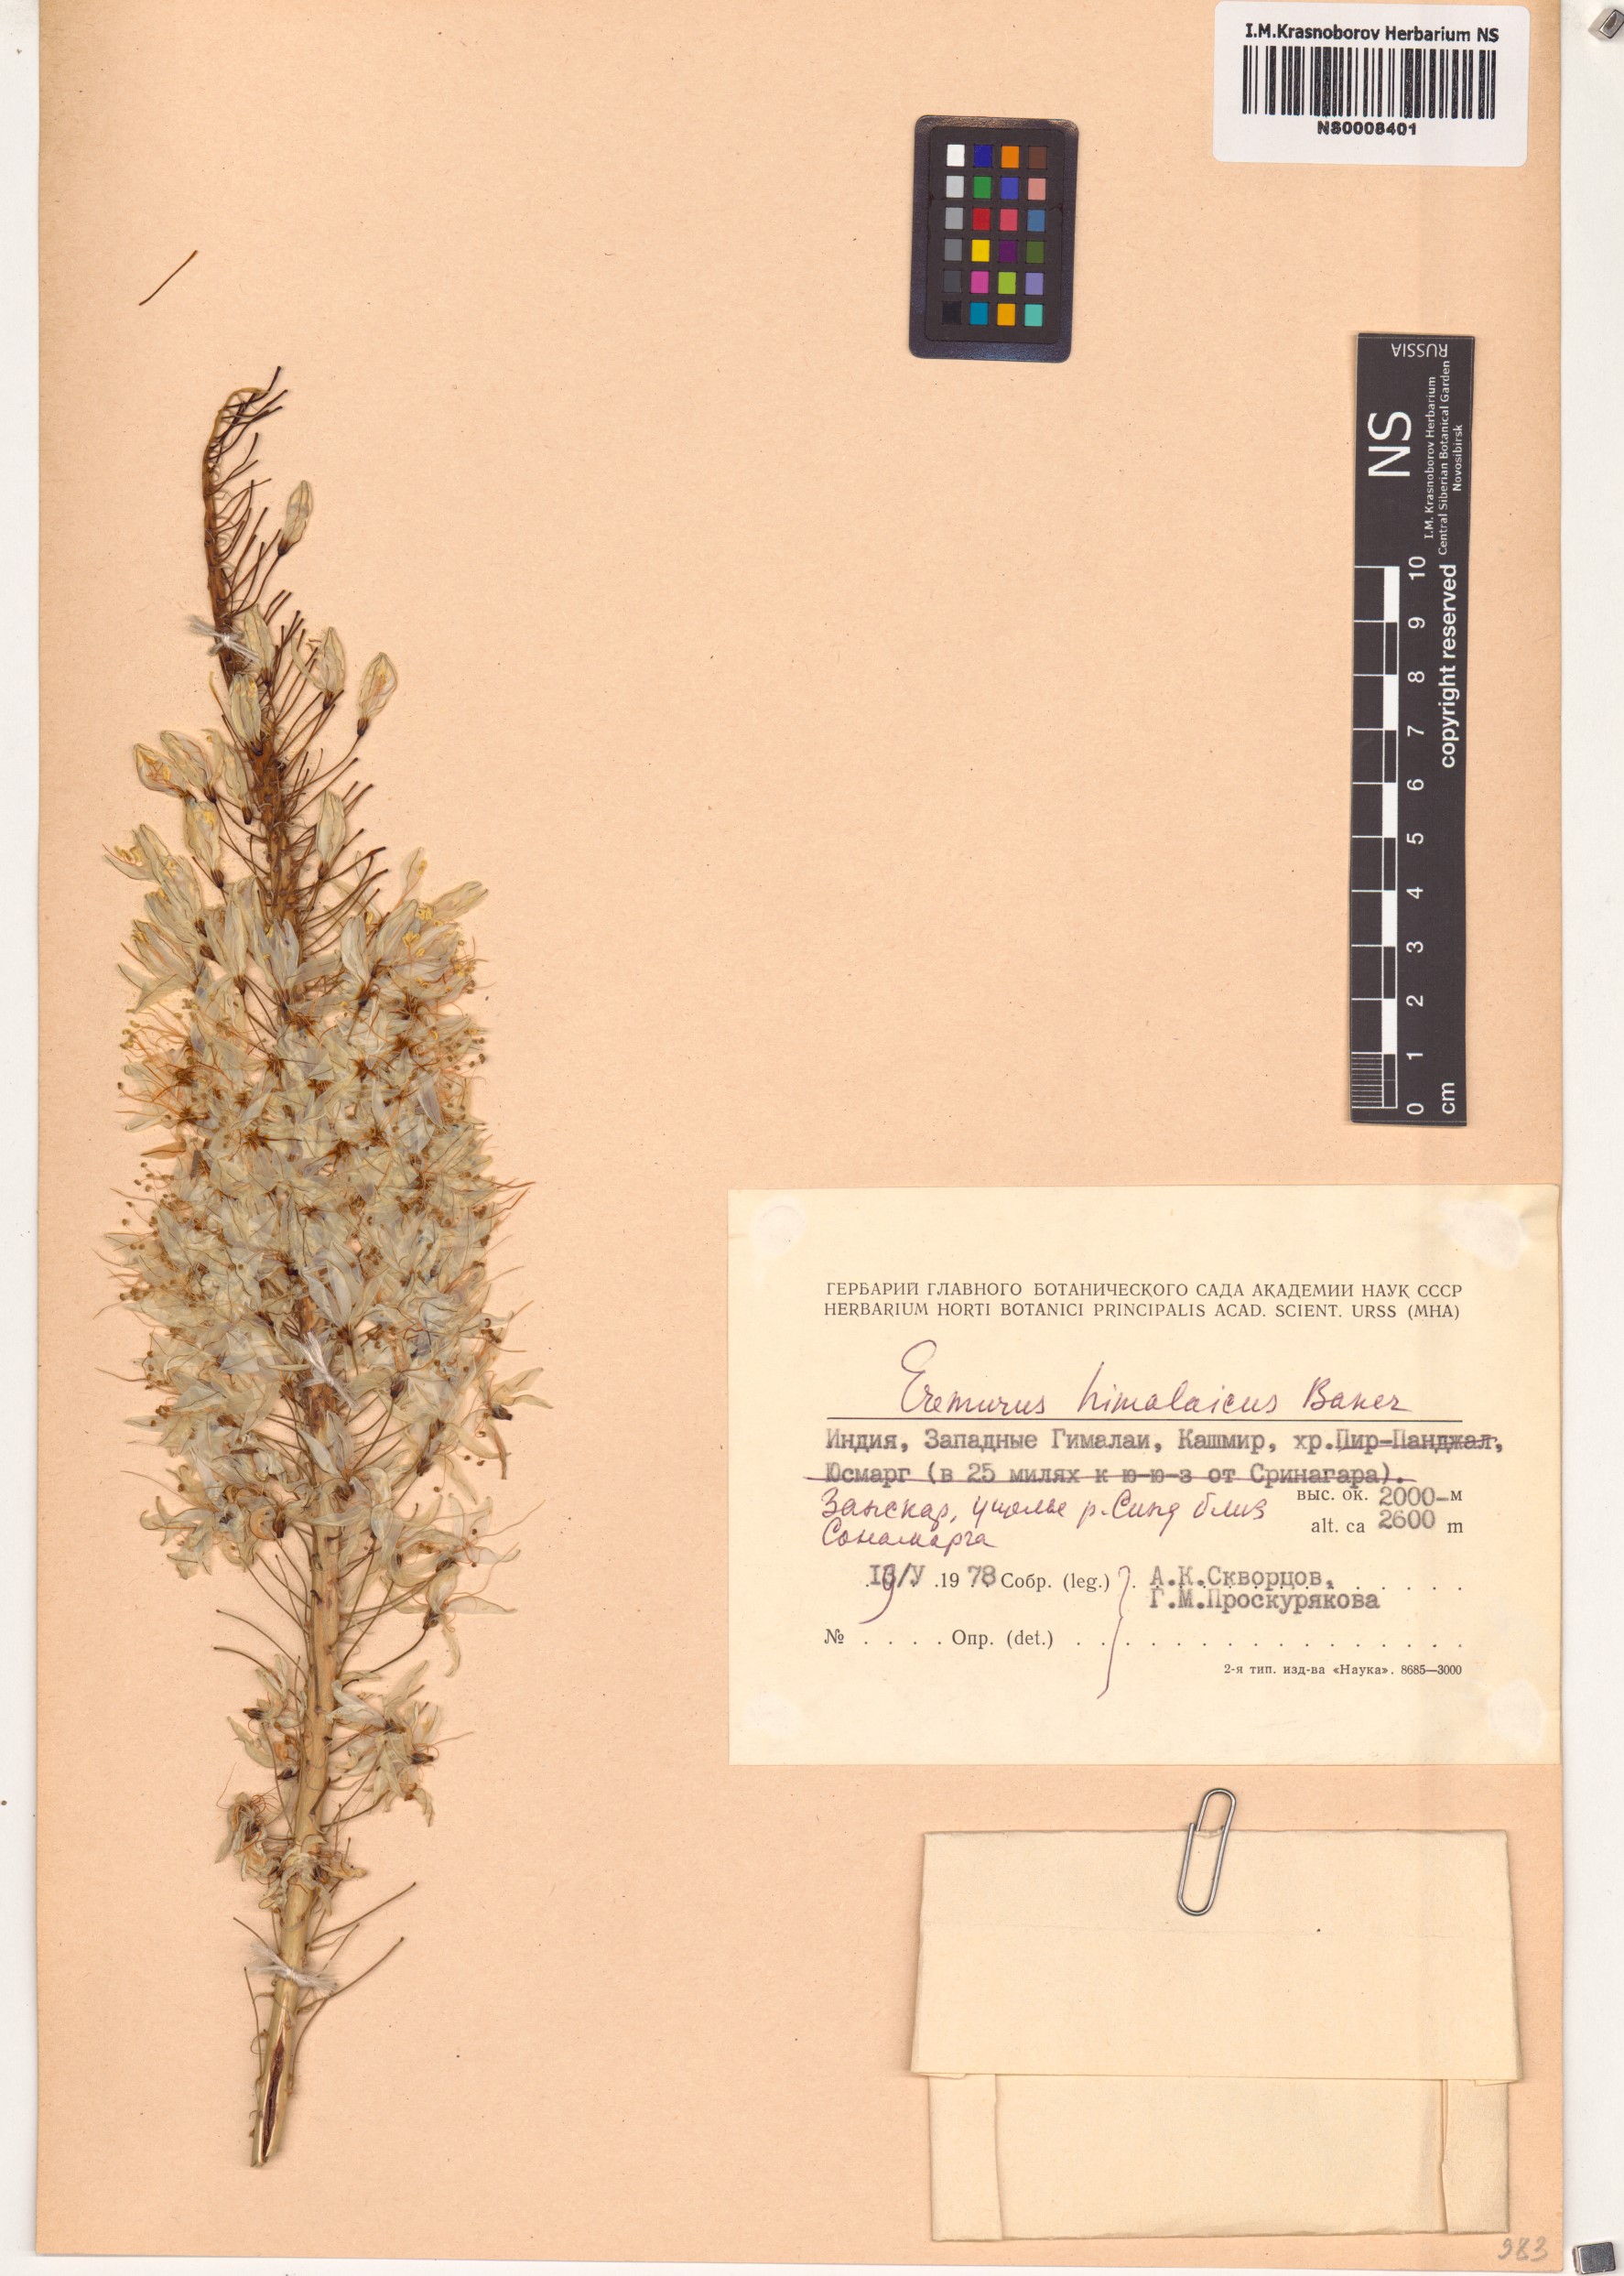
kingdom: Plantae
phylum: Tracheophyta
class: Liliopsida
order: Asparagales
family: Asphodelaceae
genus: Eremurus
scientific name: Eremurus himalaicus
